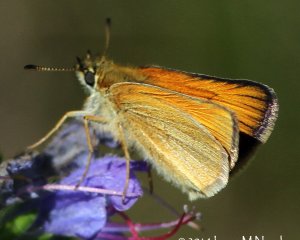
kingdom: Animalia
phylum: Arthropoda
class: Insecta
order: Lepidoptera
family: Hesperiidae
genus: Thymelicus
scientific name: Thymelicus lineola
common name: European Skipper
